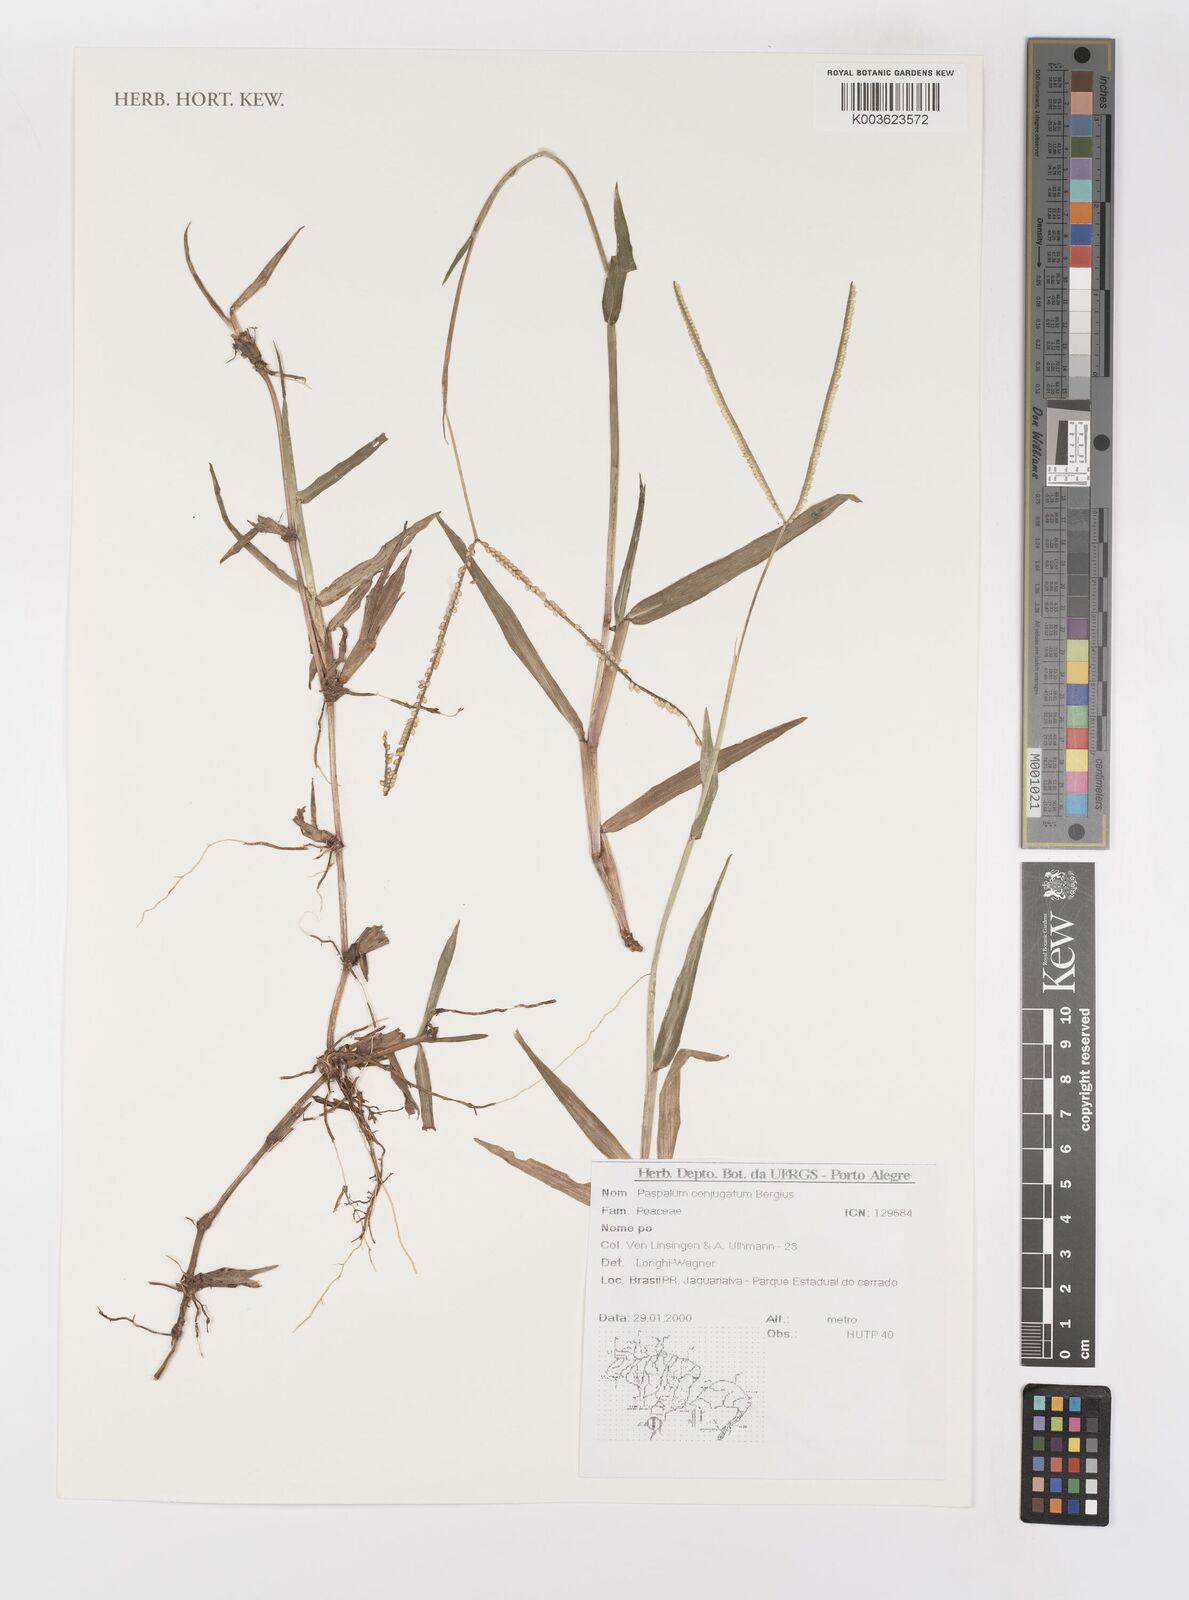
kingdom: Plantae
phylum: Tracheophyta
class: Liliopsida
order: Poales
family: Poaceae
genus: Paspalum
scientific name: Paspalum conjugatum
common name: Hilograss
